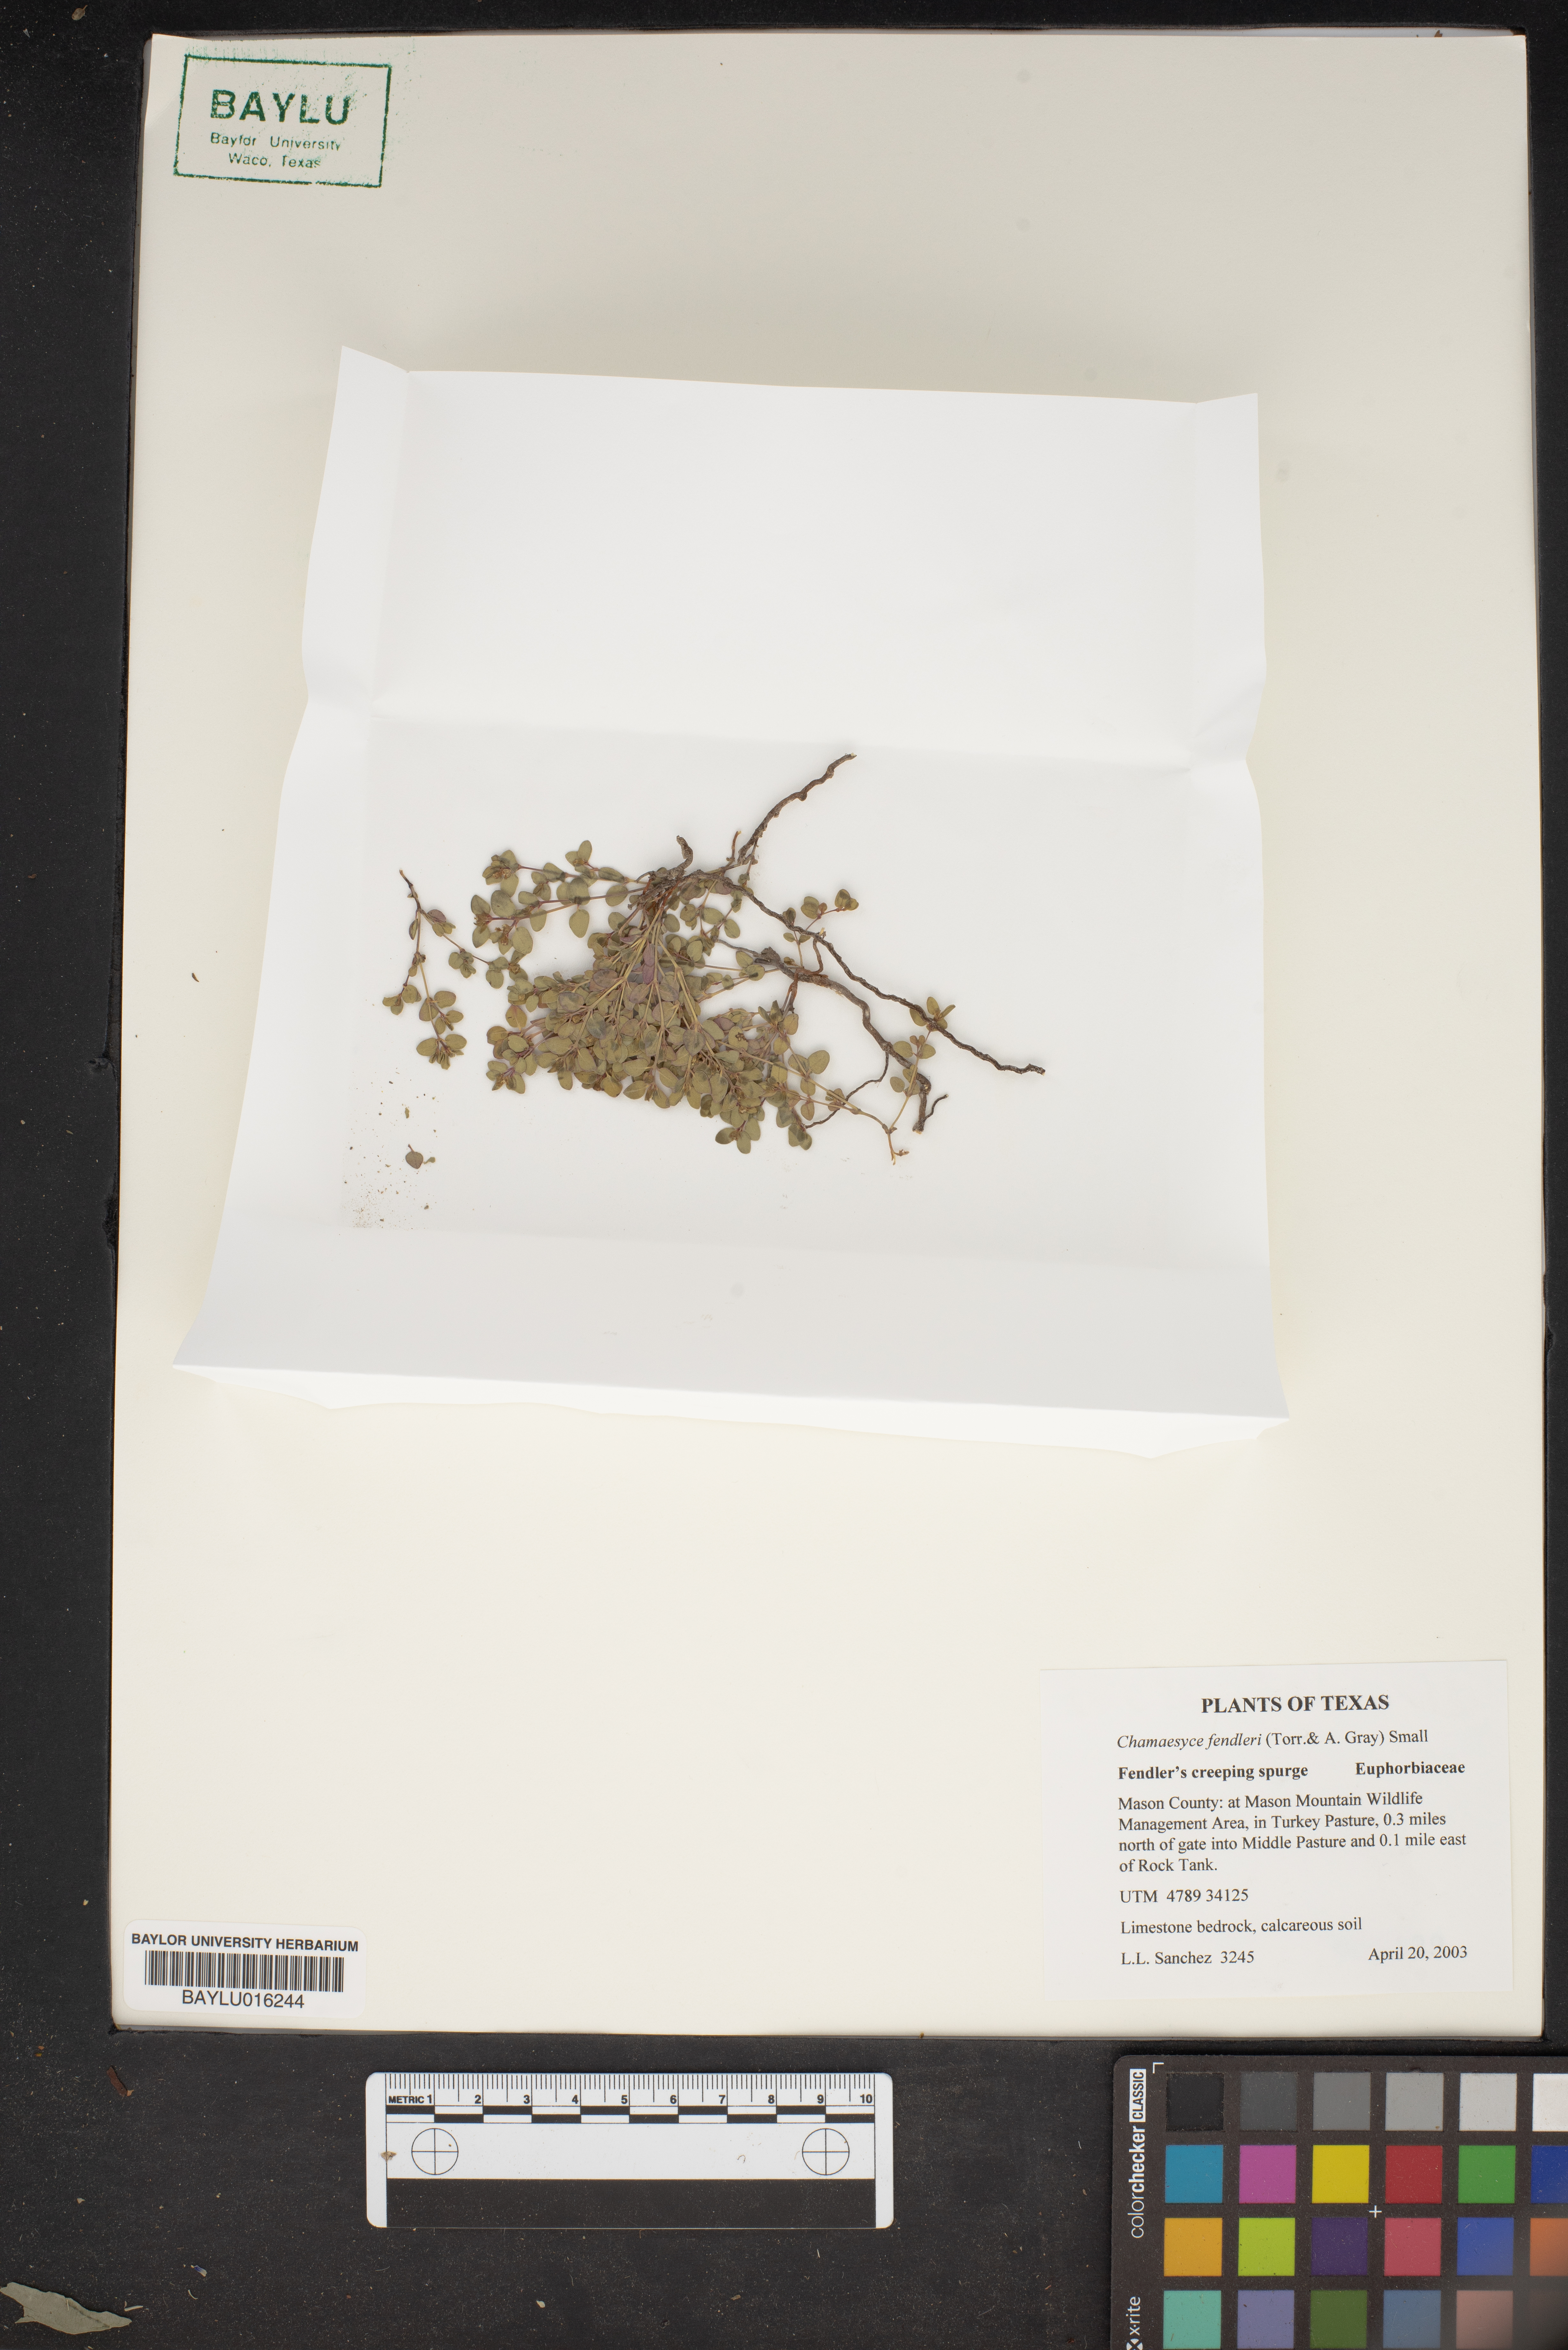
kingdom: Plantae
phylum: Tracheophyta
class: Magnoliopsida
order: Malpighiales
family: Euphorbiaceae
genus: Euphorbia
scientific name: Euphorbia fendleri
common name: Fendler's euphorbia
